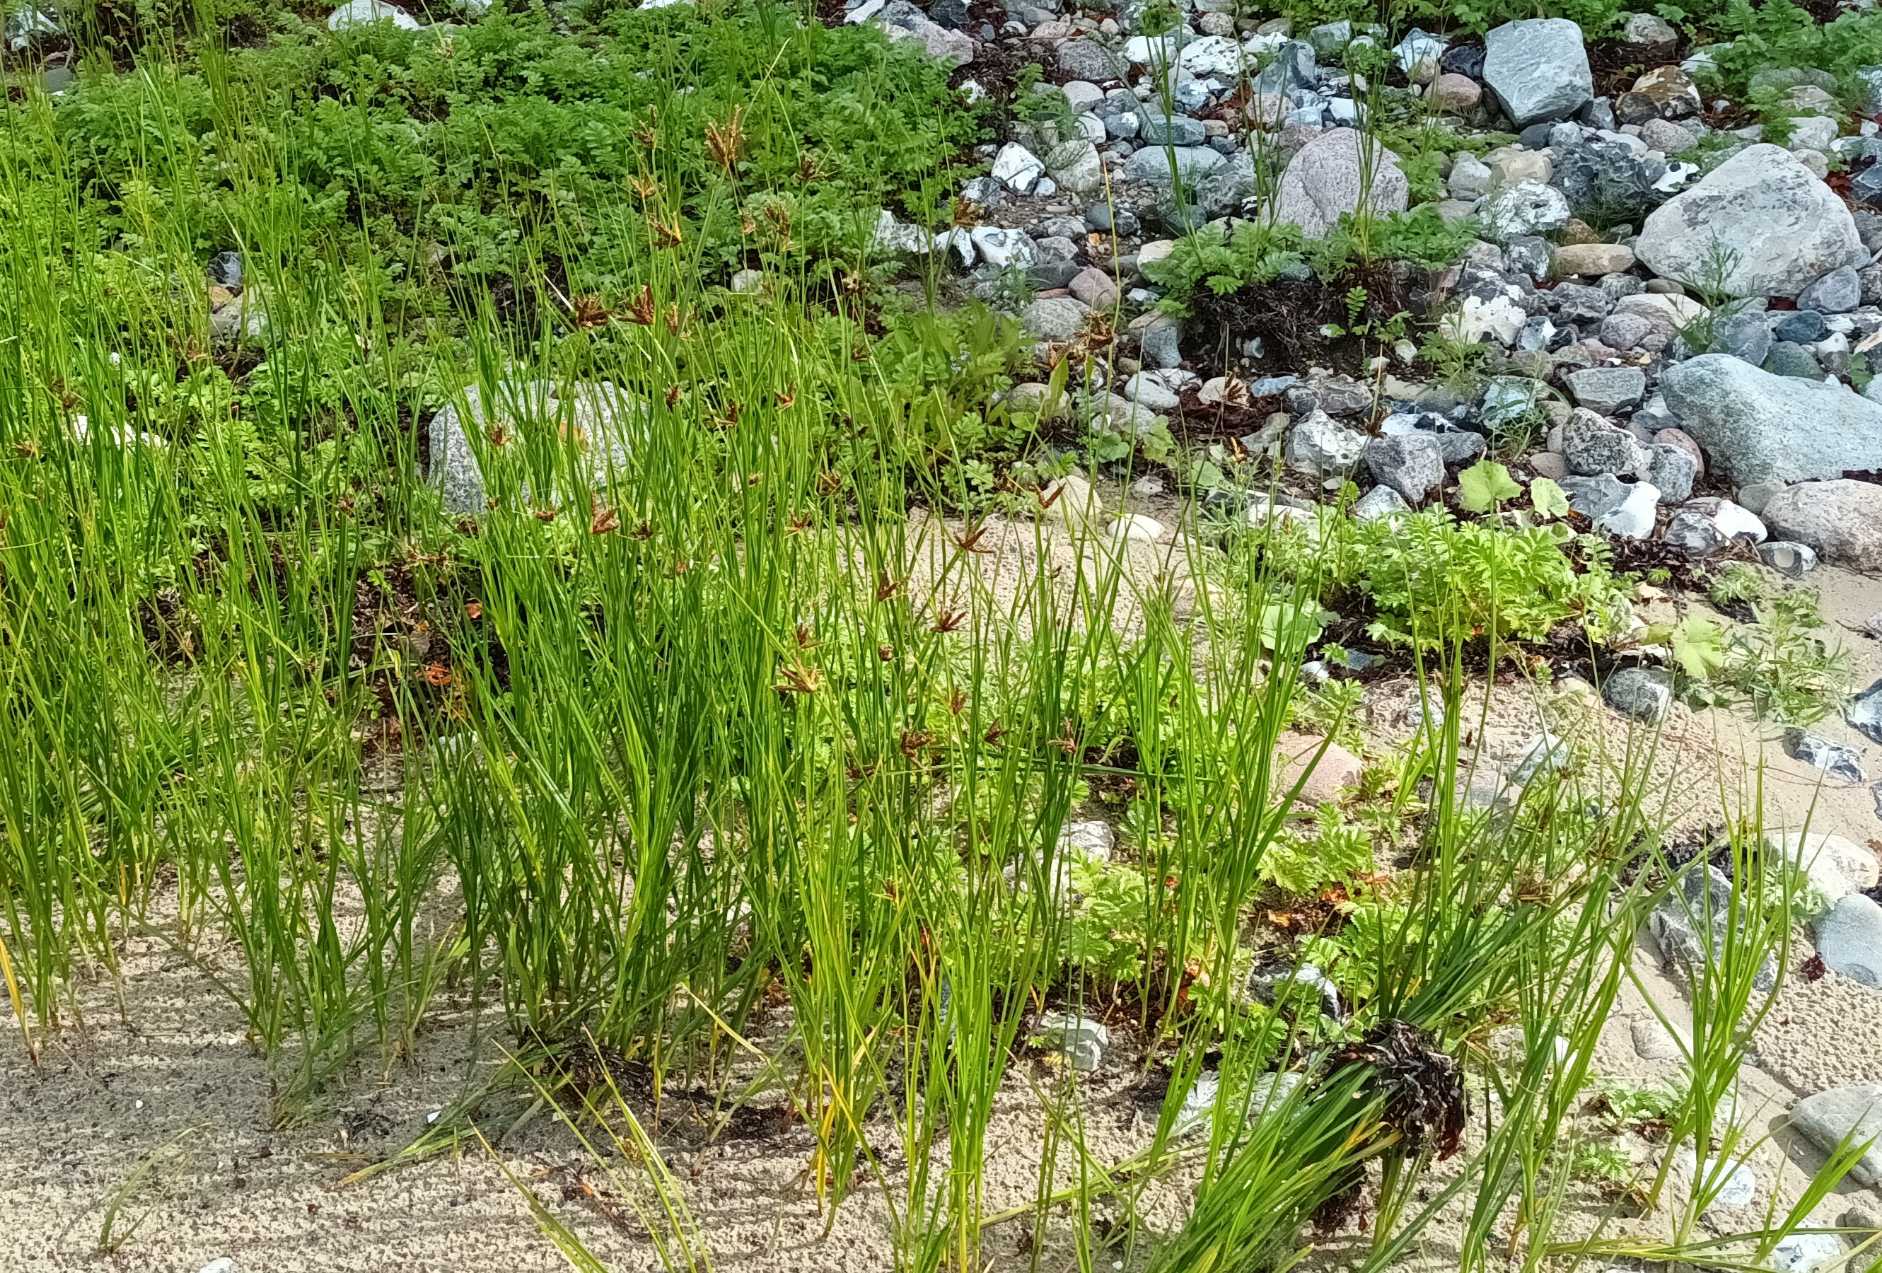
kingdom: Plantae
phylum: Tracheophyta
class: Liliopsida
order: Poales
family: Cyperaceae
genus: Bolboschoenus
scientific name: Bolboschoenus maritimus
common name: Strand-kogleaks
